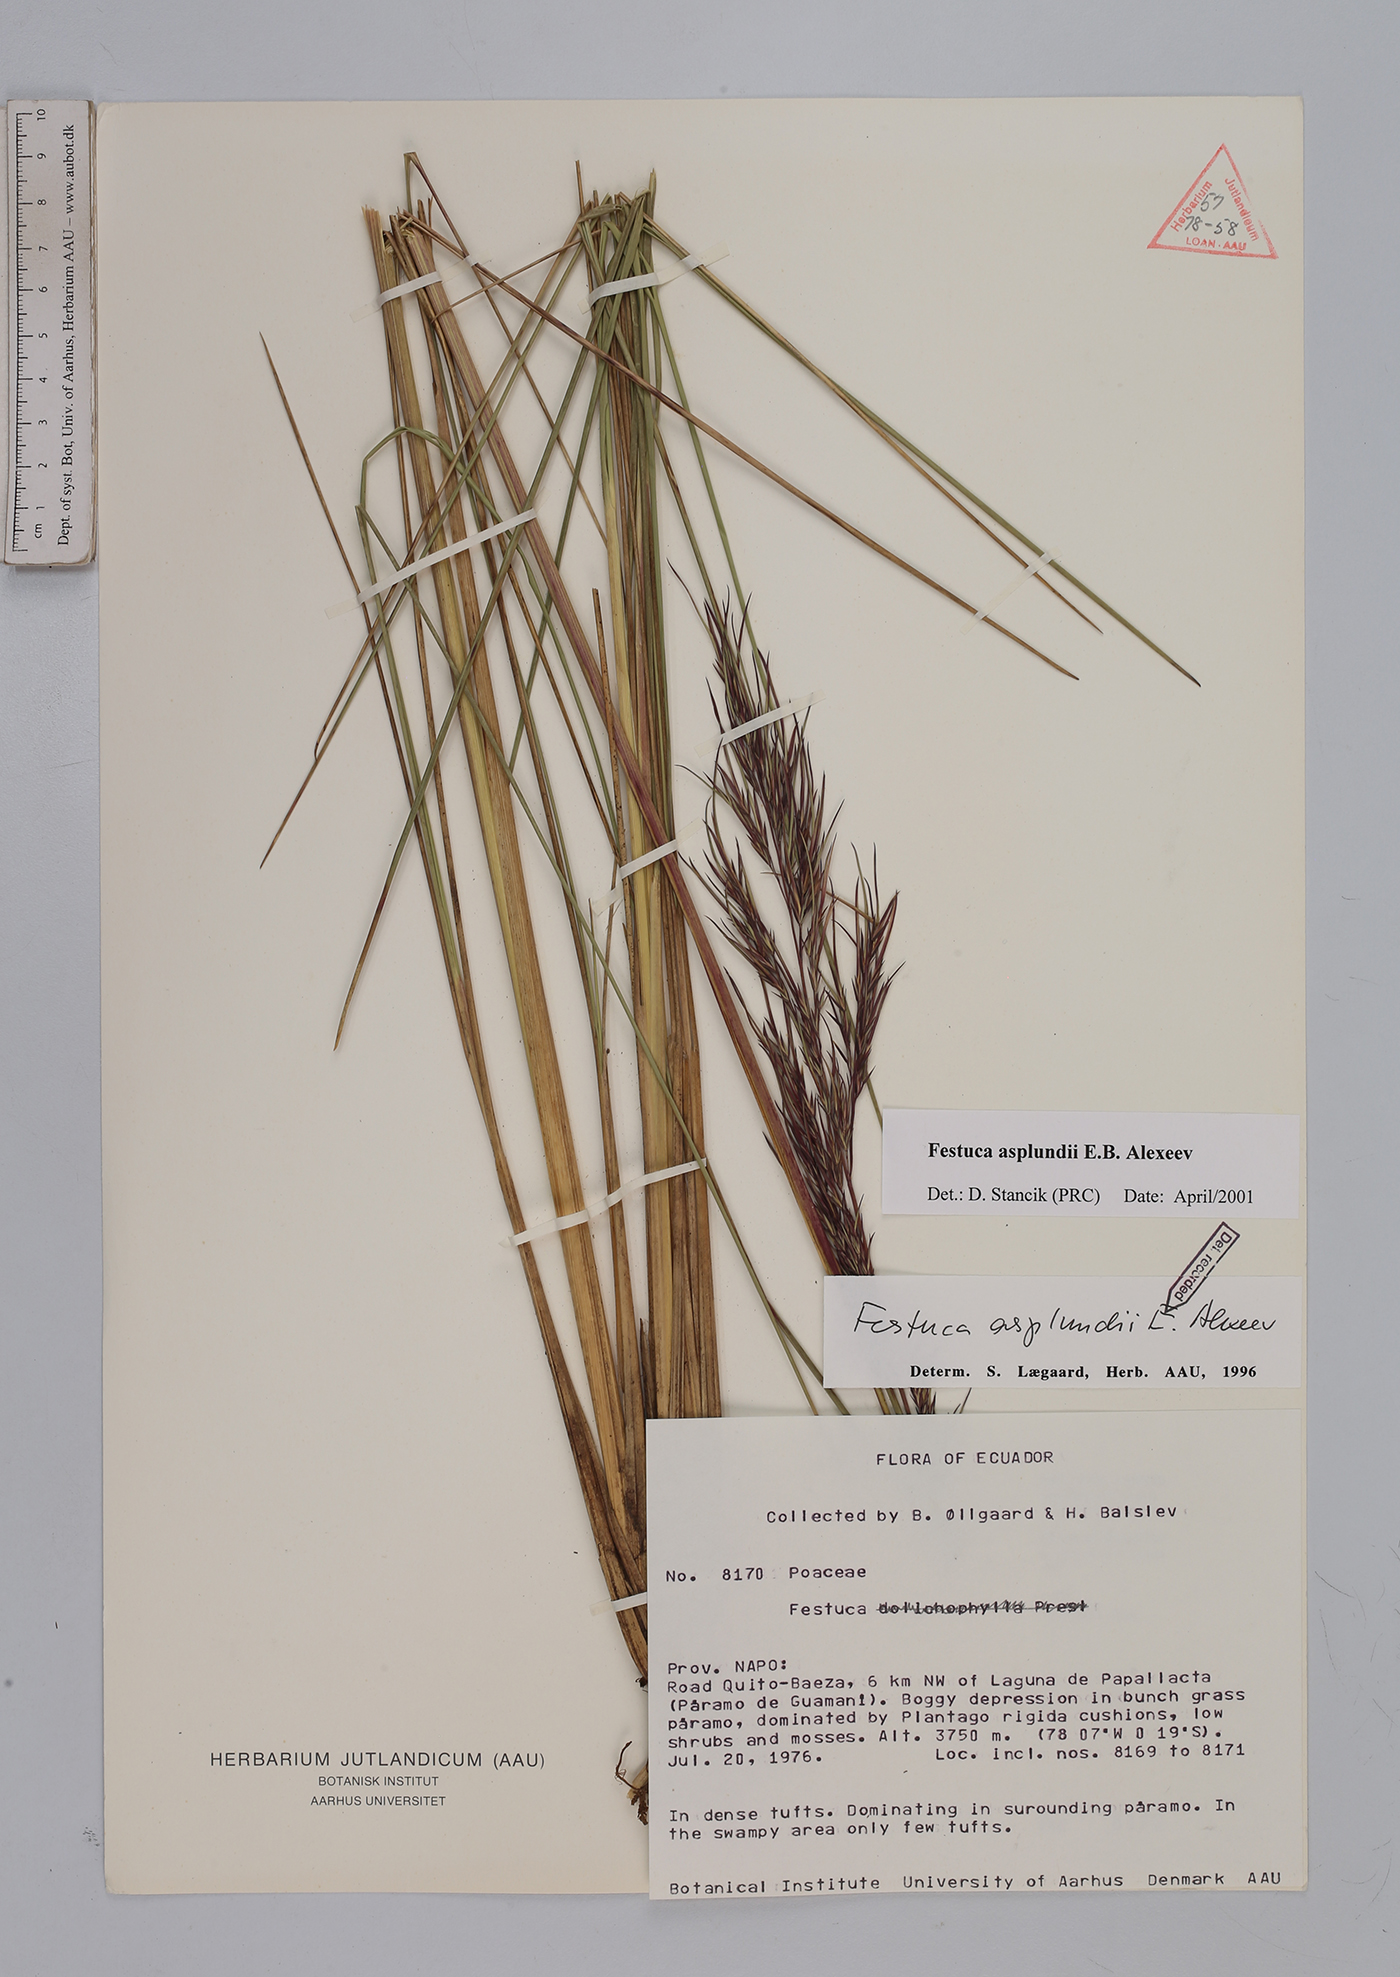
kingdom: Plantae
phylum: Tracheophyta
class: Liliopsida
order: Poales
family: Poaceae
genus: Festuca
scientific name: Festuca asplundii
